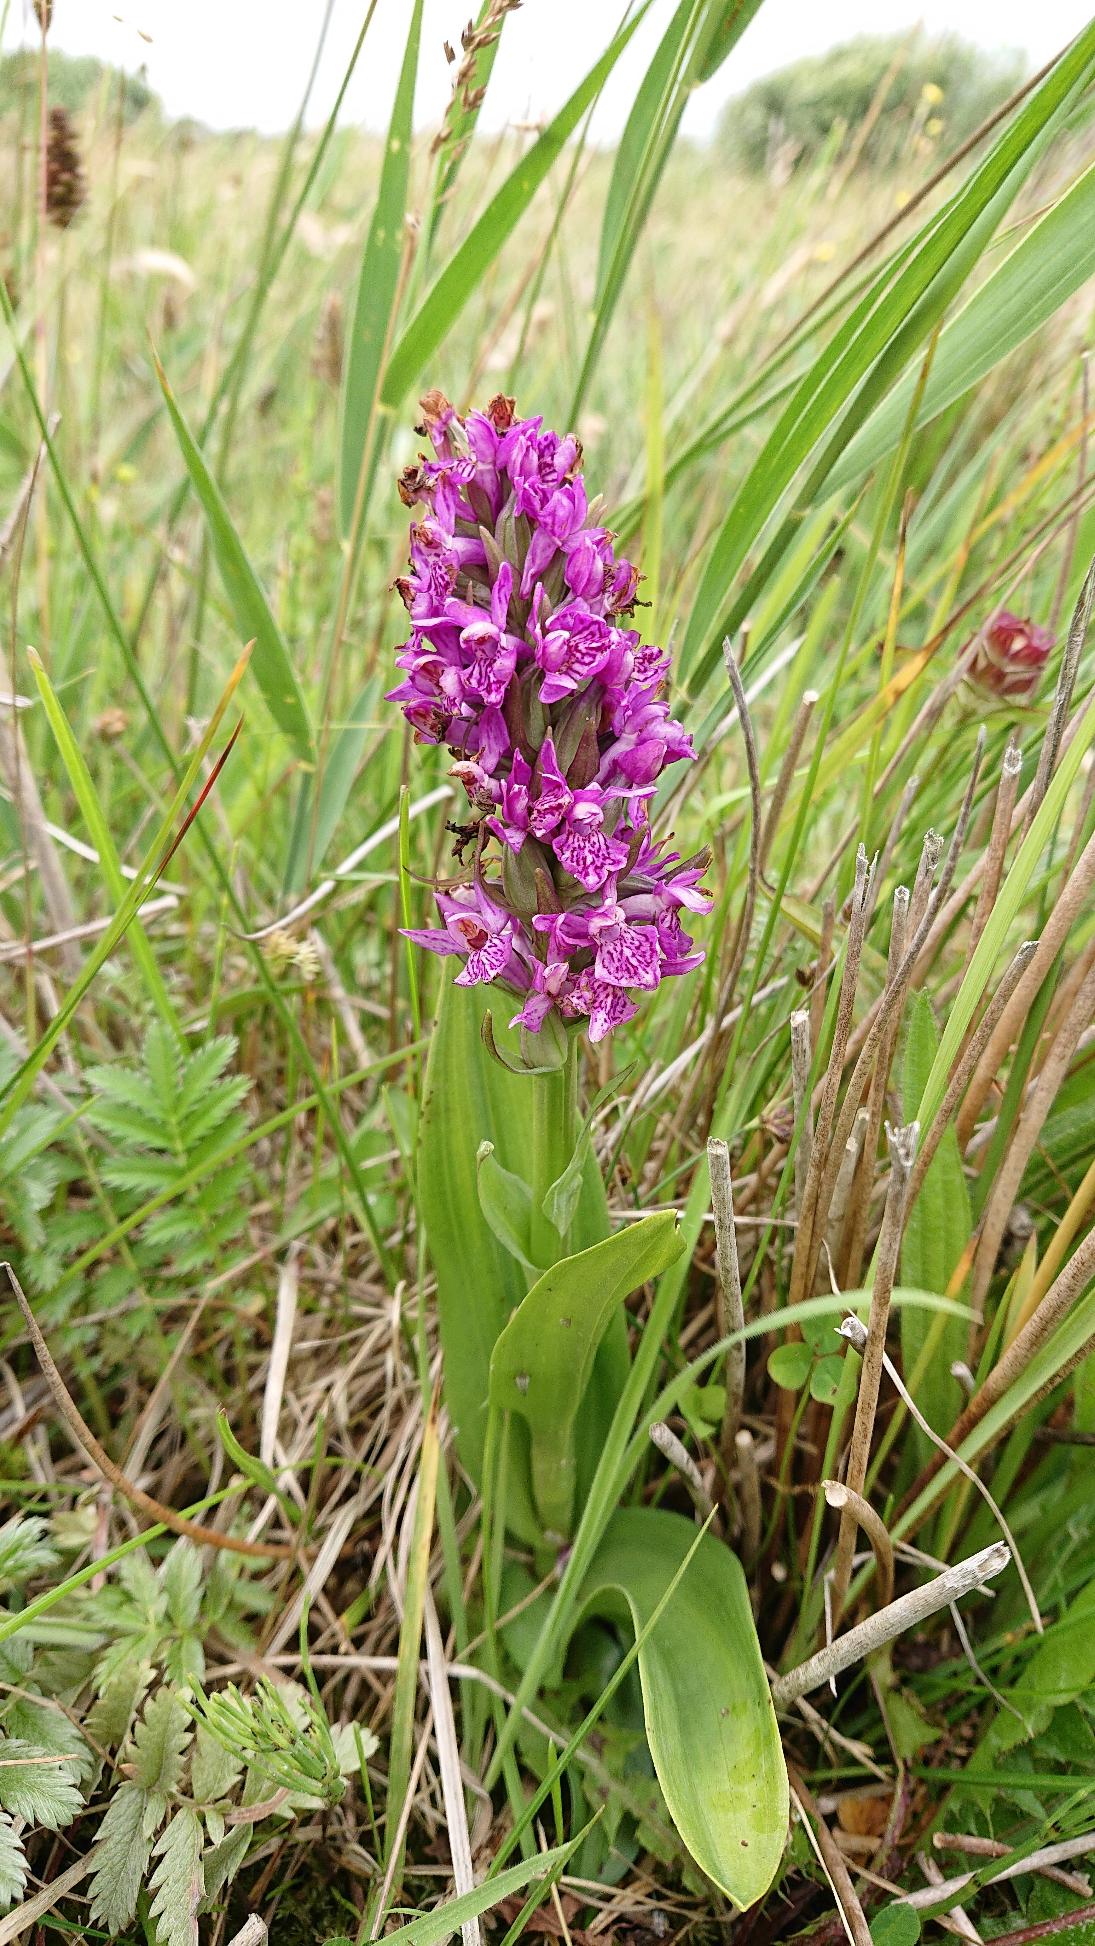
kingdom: Plantae
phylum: Tracheophyta
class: Liliopsida
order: Asparagales
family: Orchidaceae
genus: Dactylorhiza
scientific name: Dactylorhiza majalis
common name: Purpur-gøgeurt
